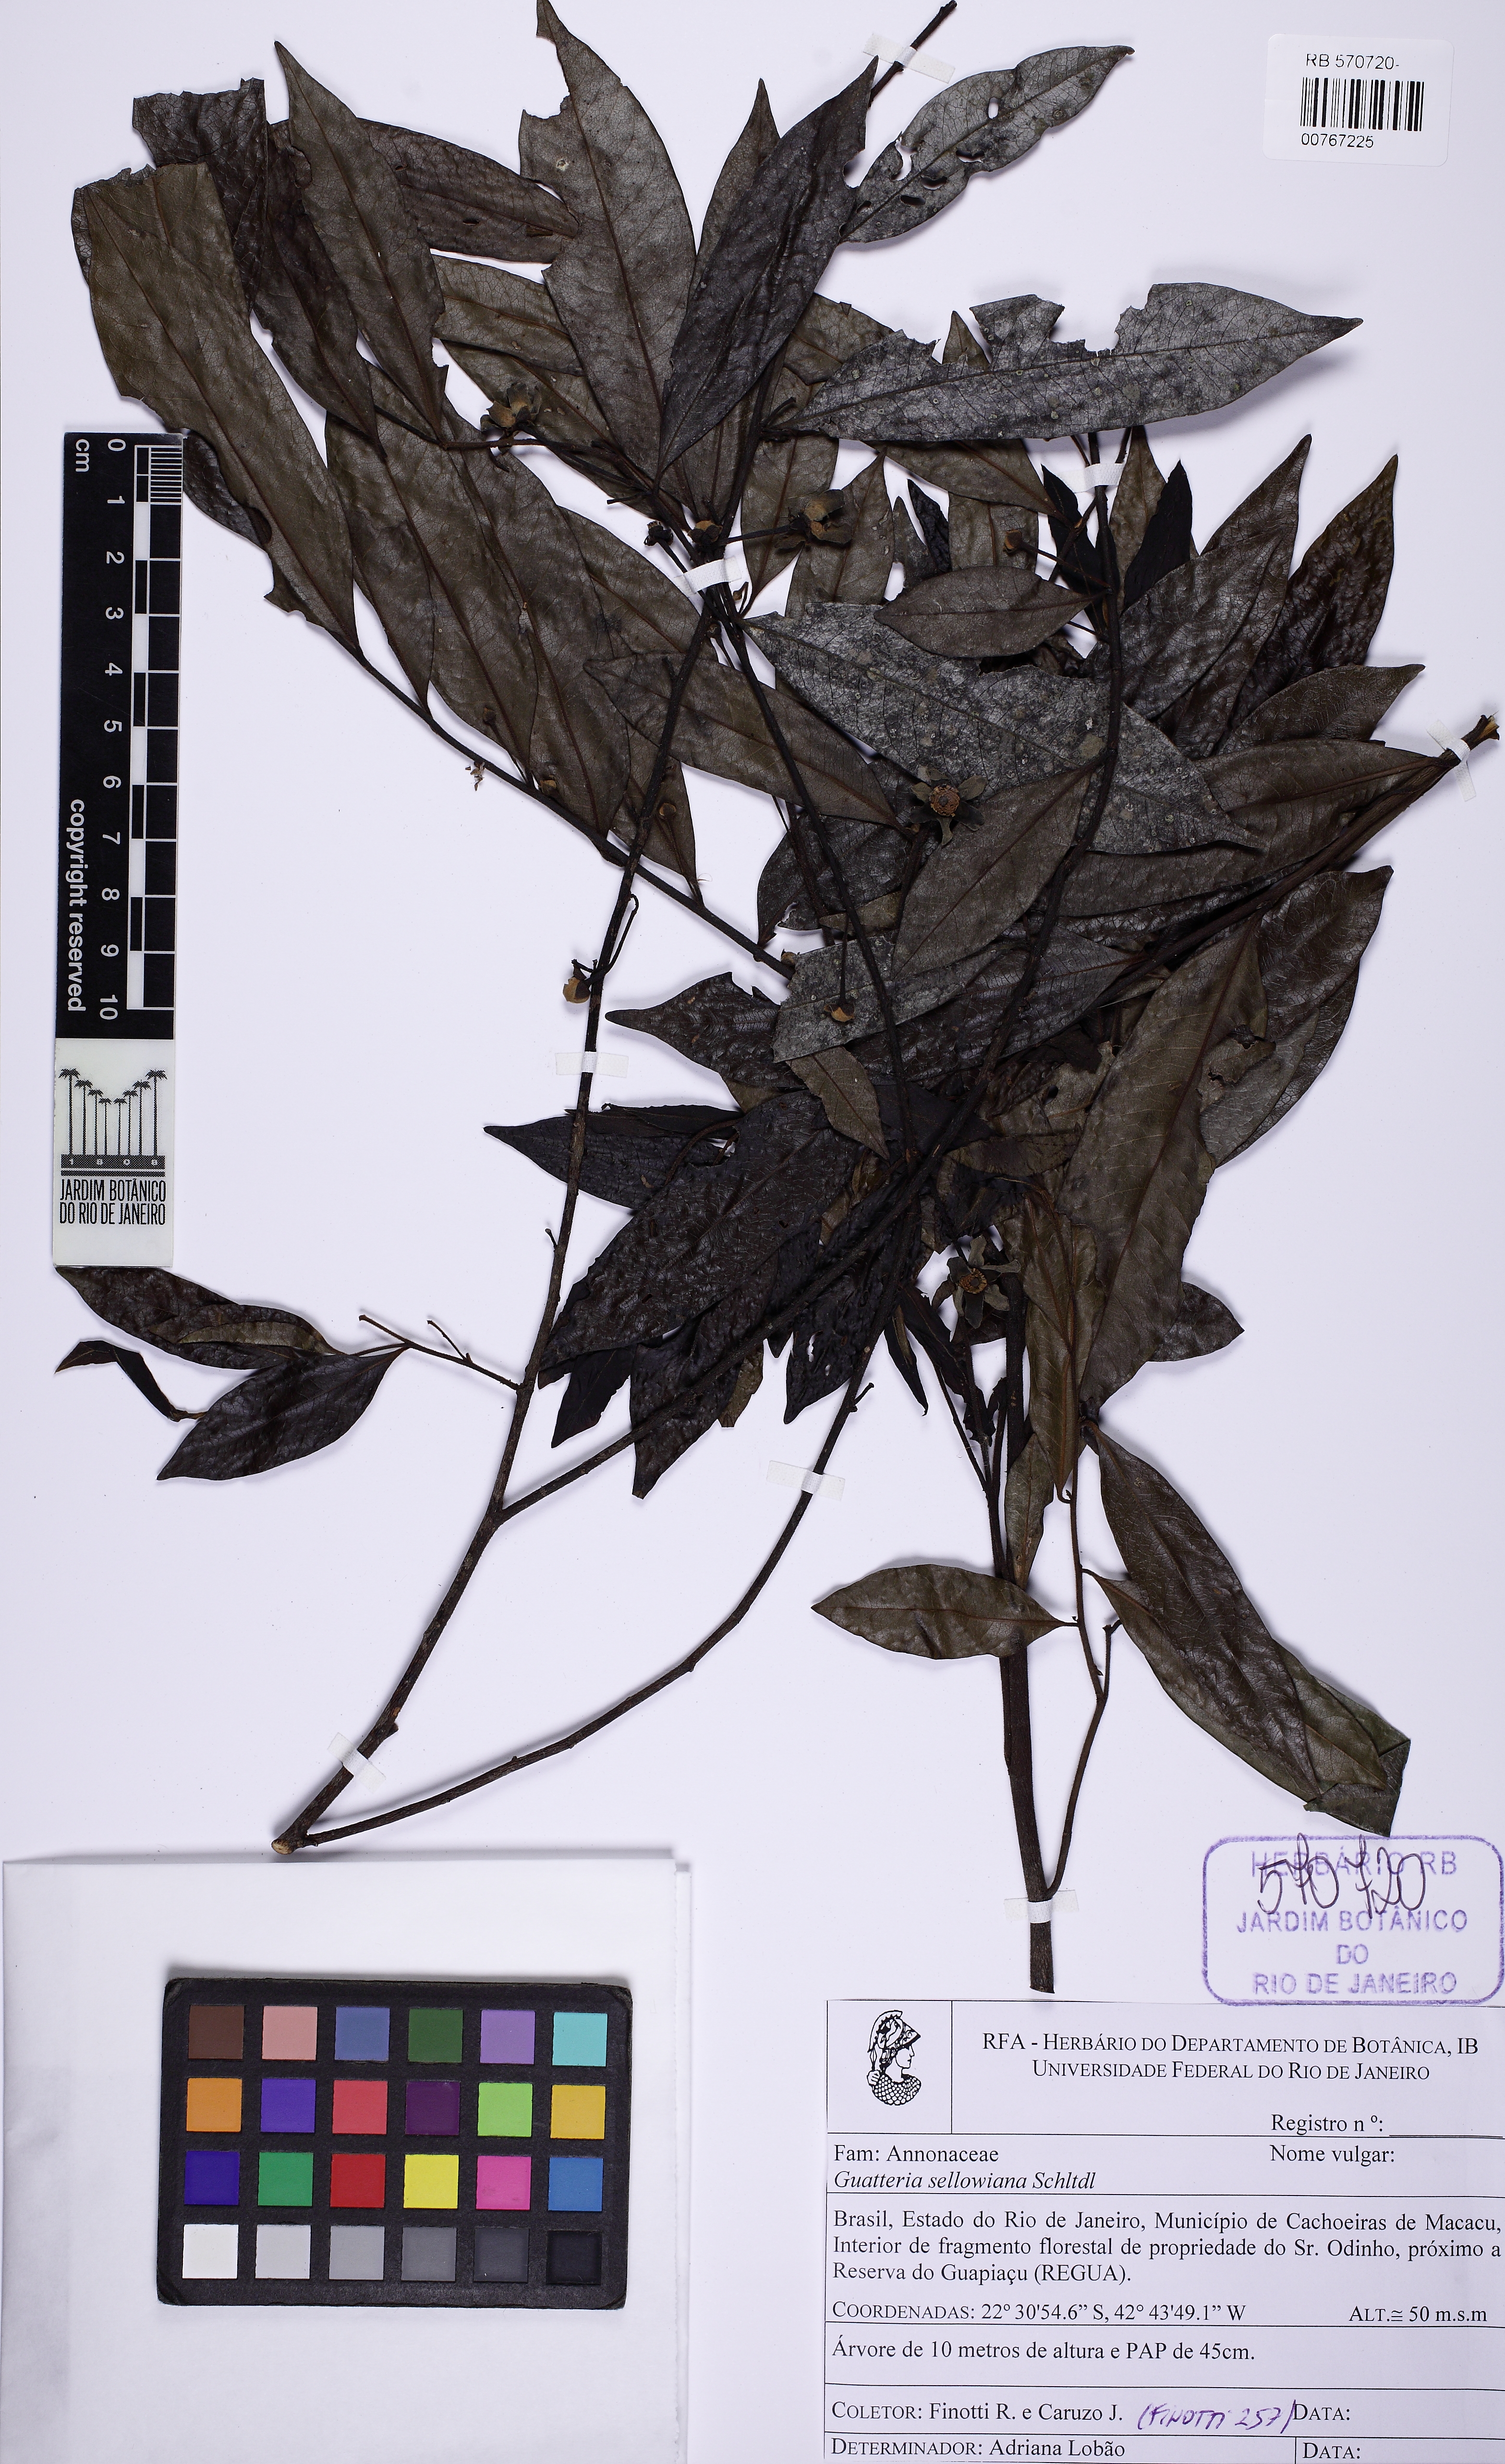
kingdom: Plantae
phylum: Tracheophyta
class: Magnoliopsida
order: Magnoliales
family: Annonaceae
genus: Guatteria
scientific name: Guatteria sellowiana
